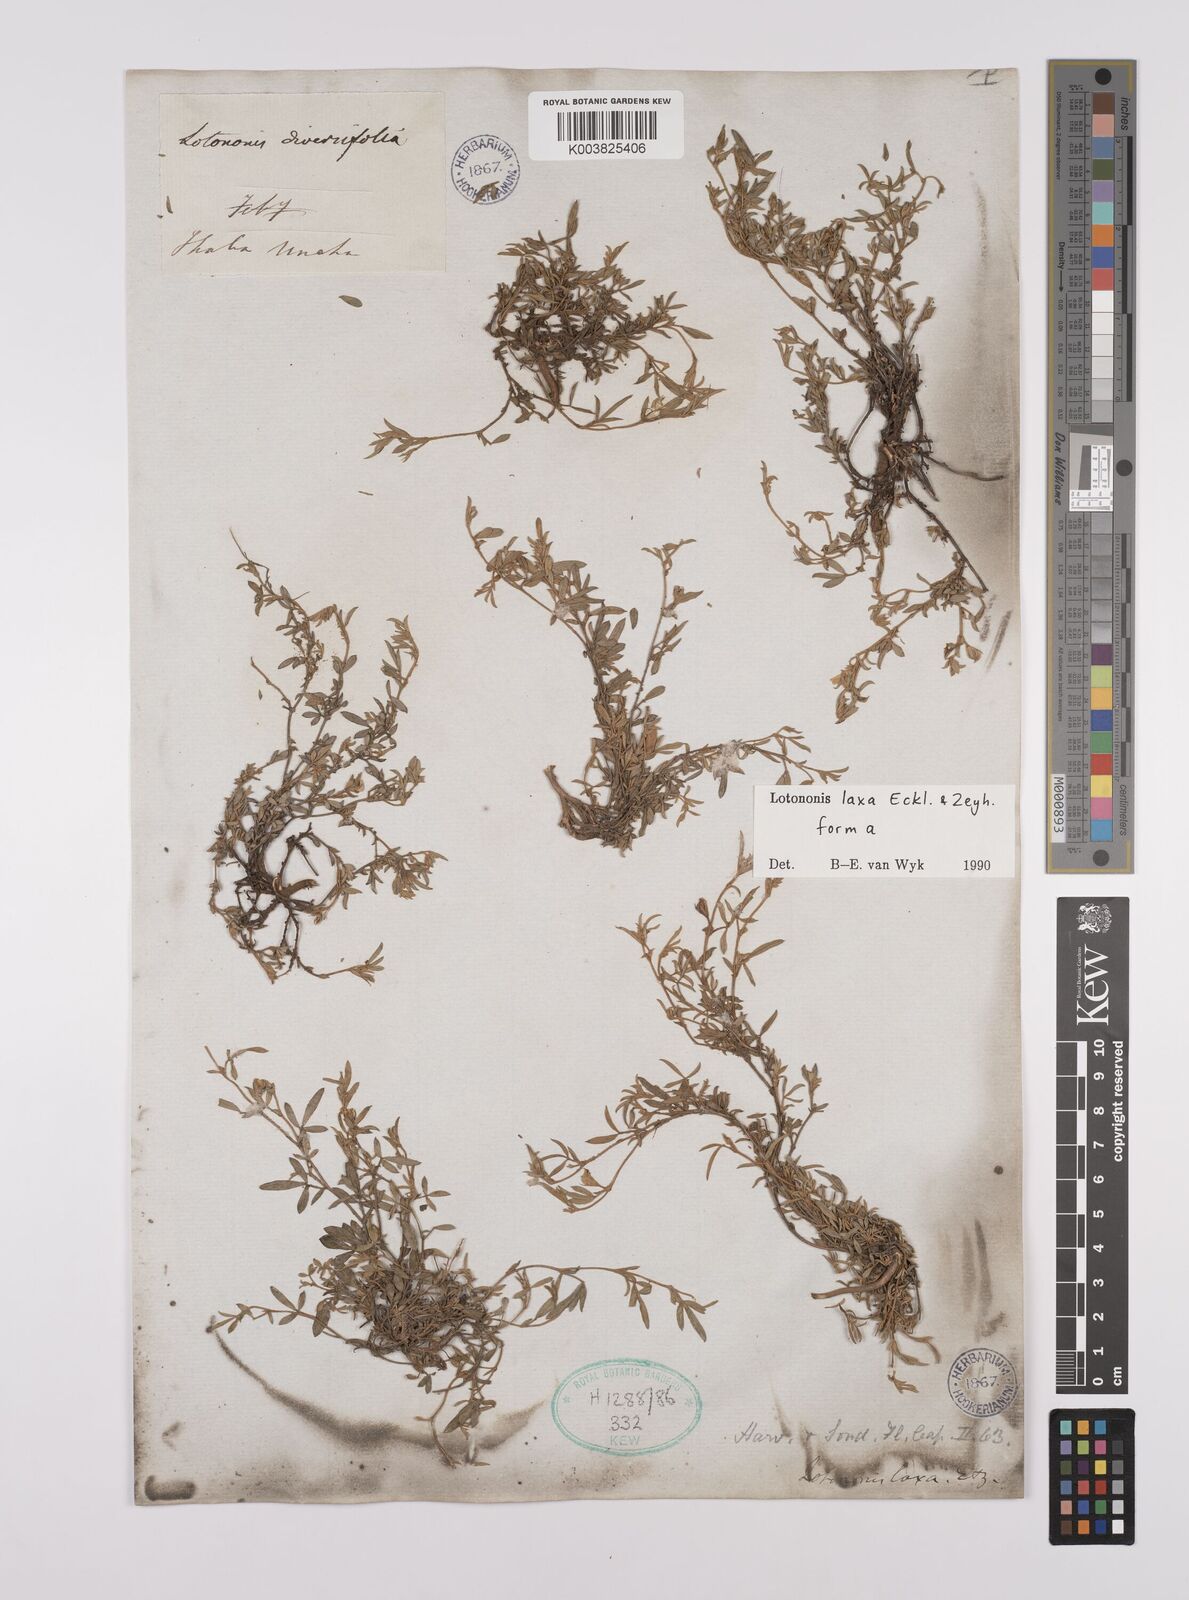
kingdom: Plantae
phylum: Tracheophyta
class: Magnoliopsida
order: Fabales
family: Fabaceae
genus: Lotononis
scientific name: Lotononis laxa
